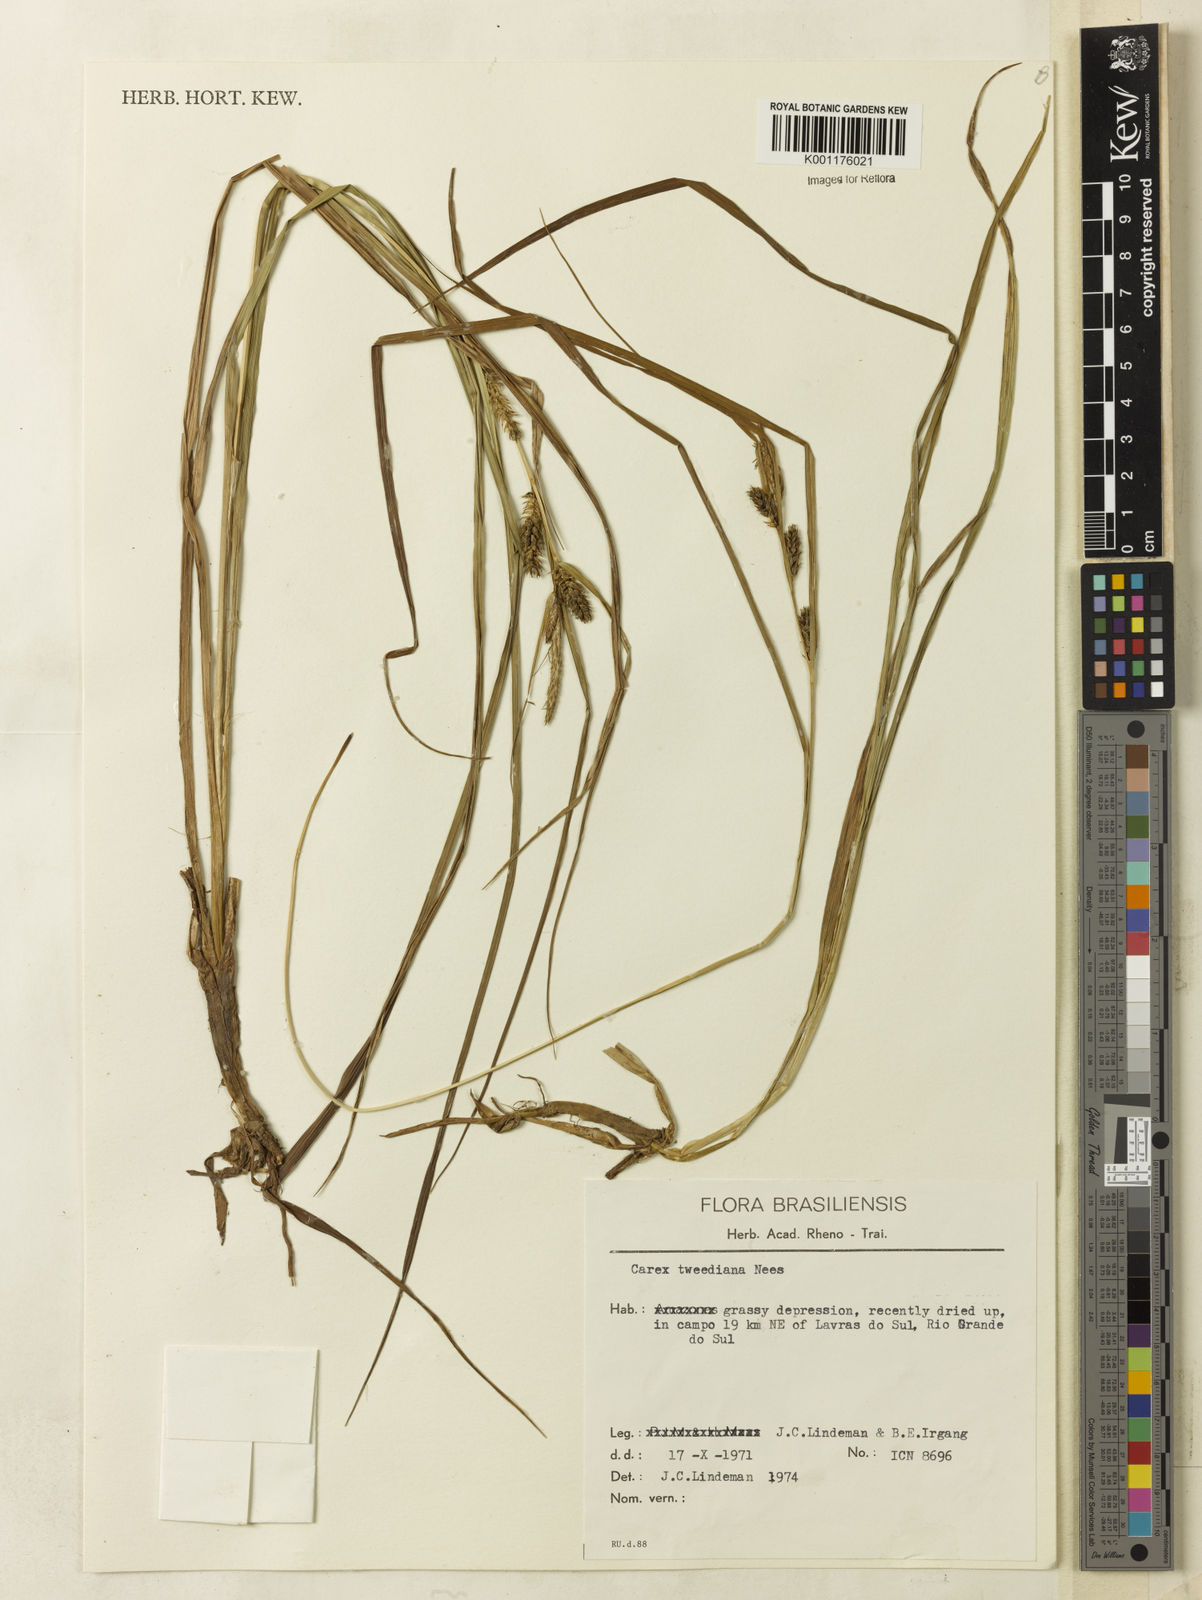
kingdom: Plantae
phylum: Tracheophyta
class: Liliopsida
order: Poales
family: Cyperaceae
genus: Carex
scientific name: Carex tweedieana
